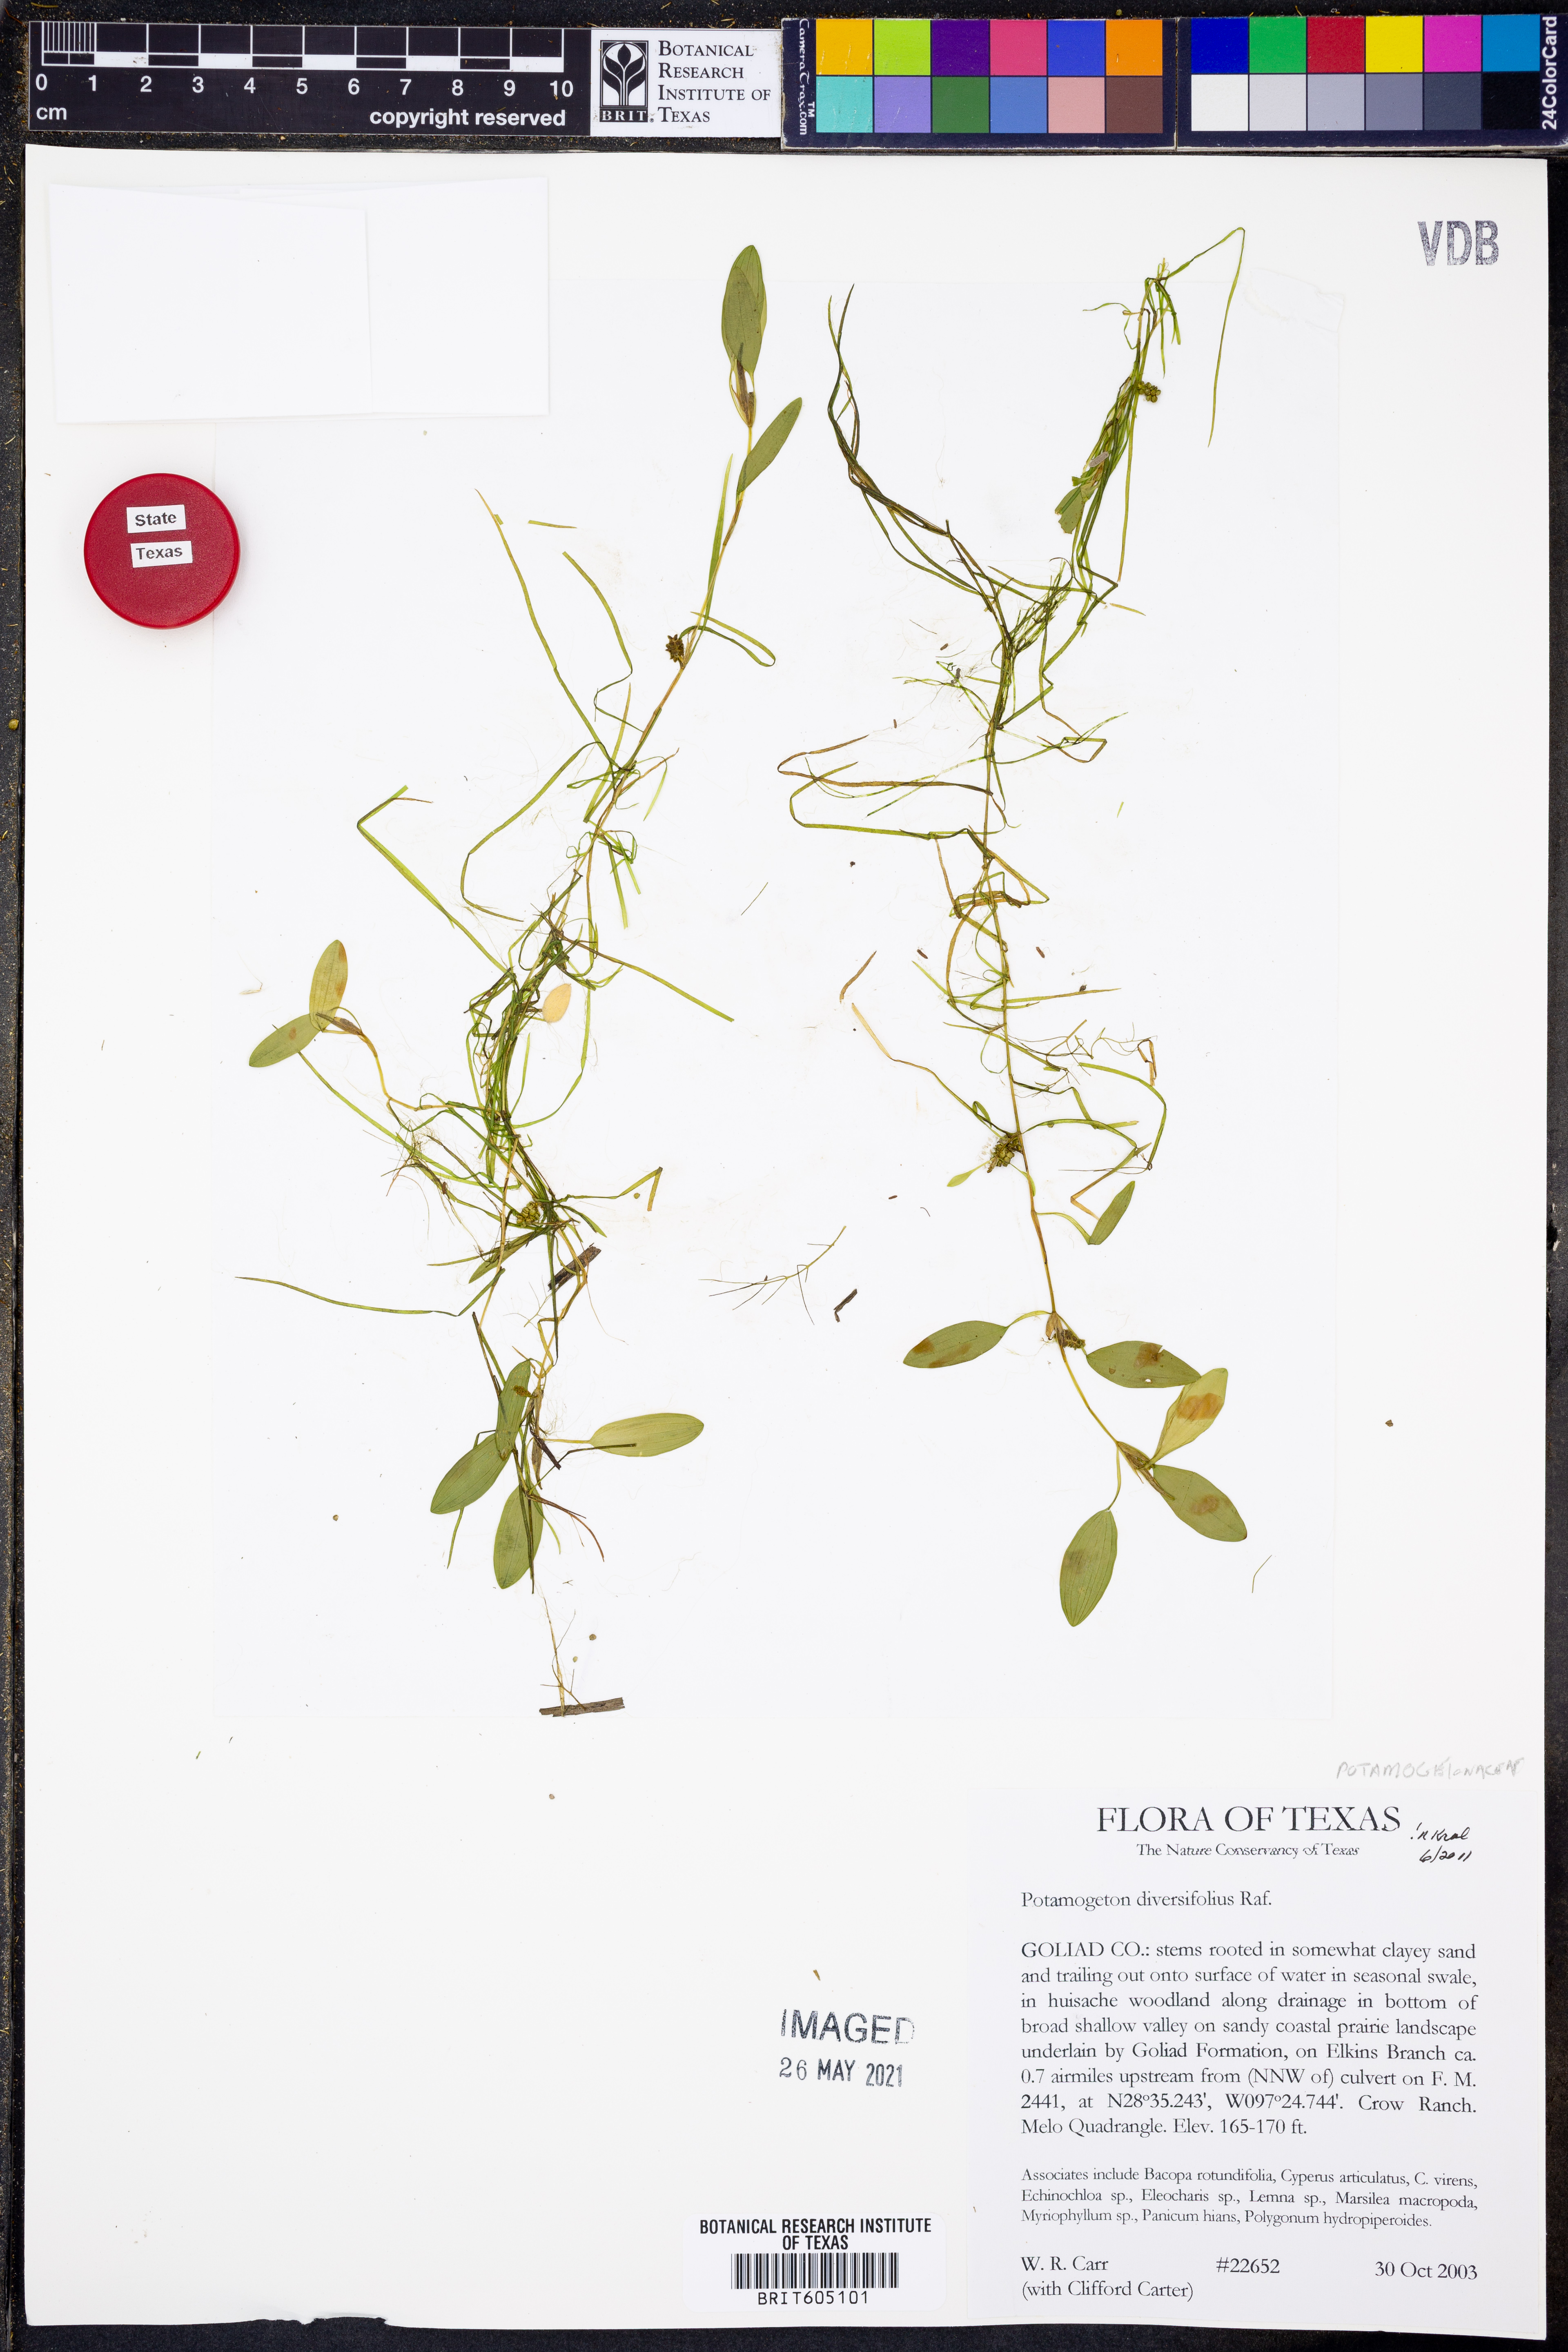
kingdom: Plantae
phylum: Tracheophyta
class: Liliopsida
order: Alismatales
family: Potamogetonaceae
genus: Potamogeton
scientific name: Potamogeton diversifolius
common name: Water-thread pondweed
